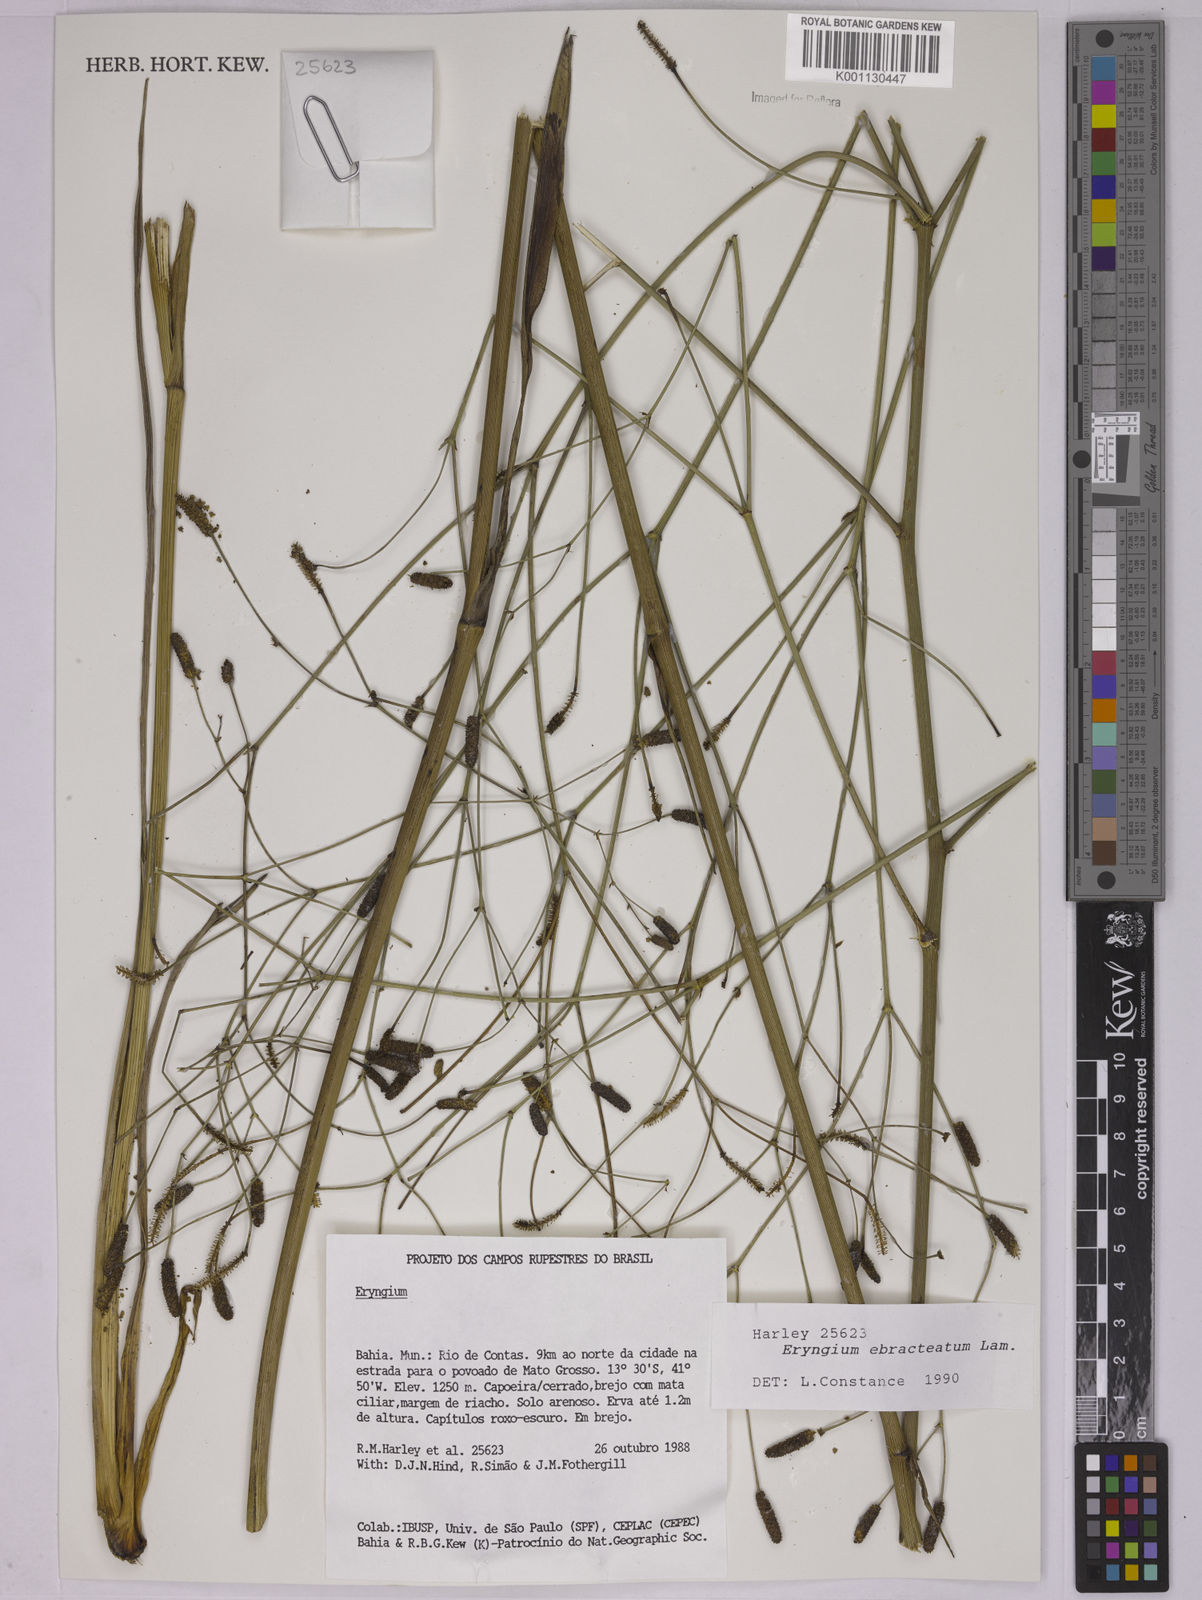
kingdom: Plantae
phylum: Tracheophyta
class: Magnoliopsida
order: Apiales
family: Apiaceae
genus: Eryngium
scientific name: Eryngium ebracteatum
